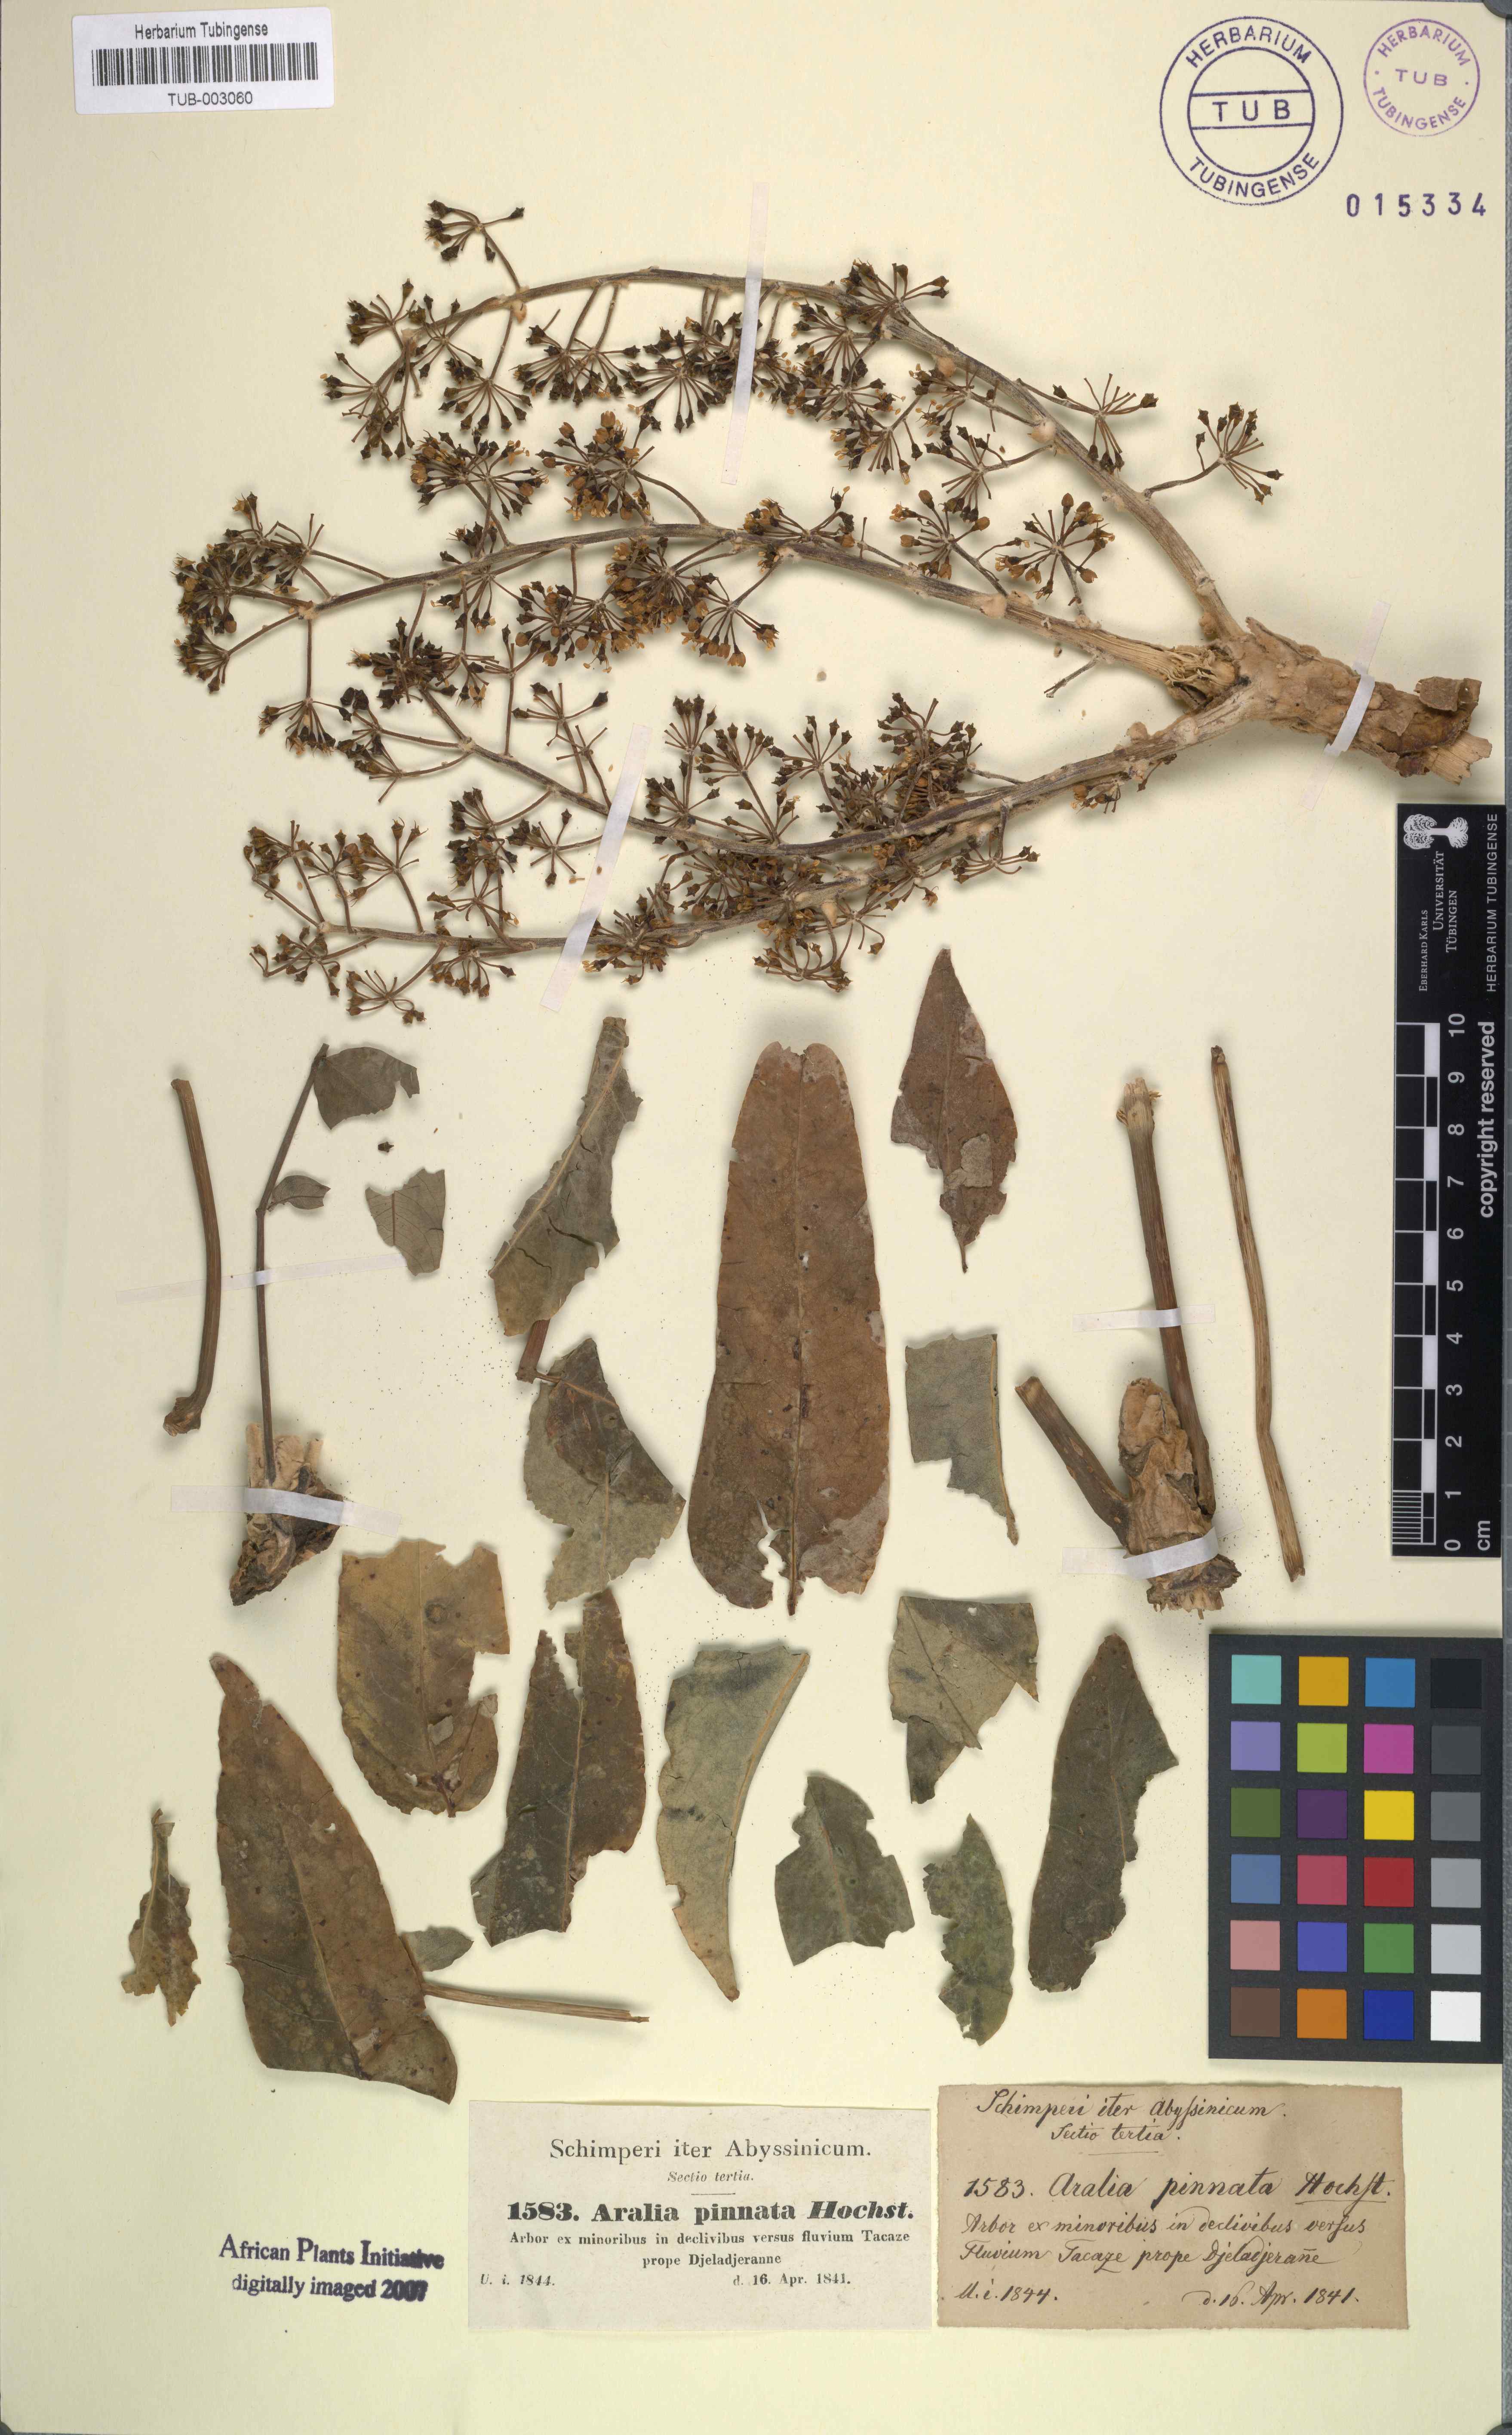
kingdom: Plantae
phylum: Tracheophyta
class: Magnoliopsida
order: Apiales
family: Araliaceae
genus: Polyscias
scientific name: Polyscias farinosa
